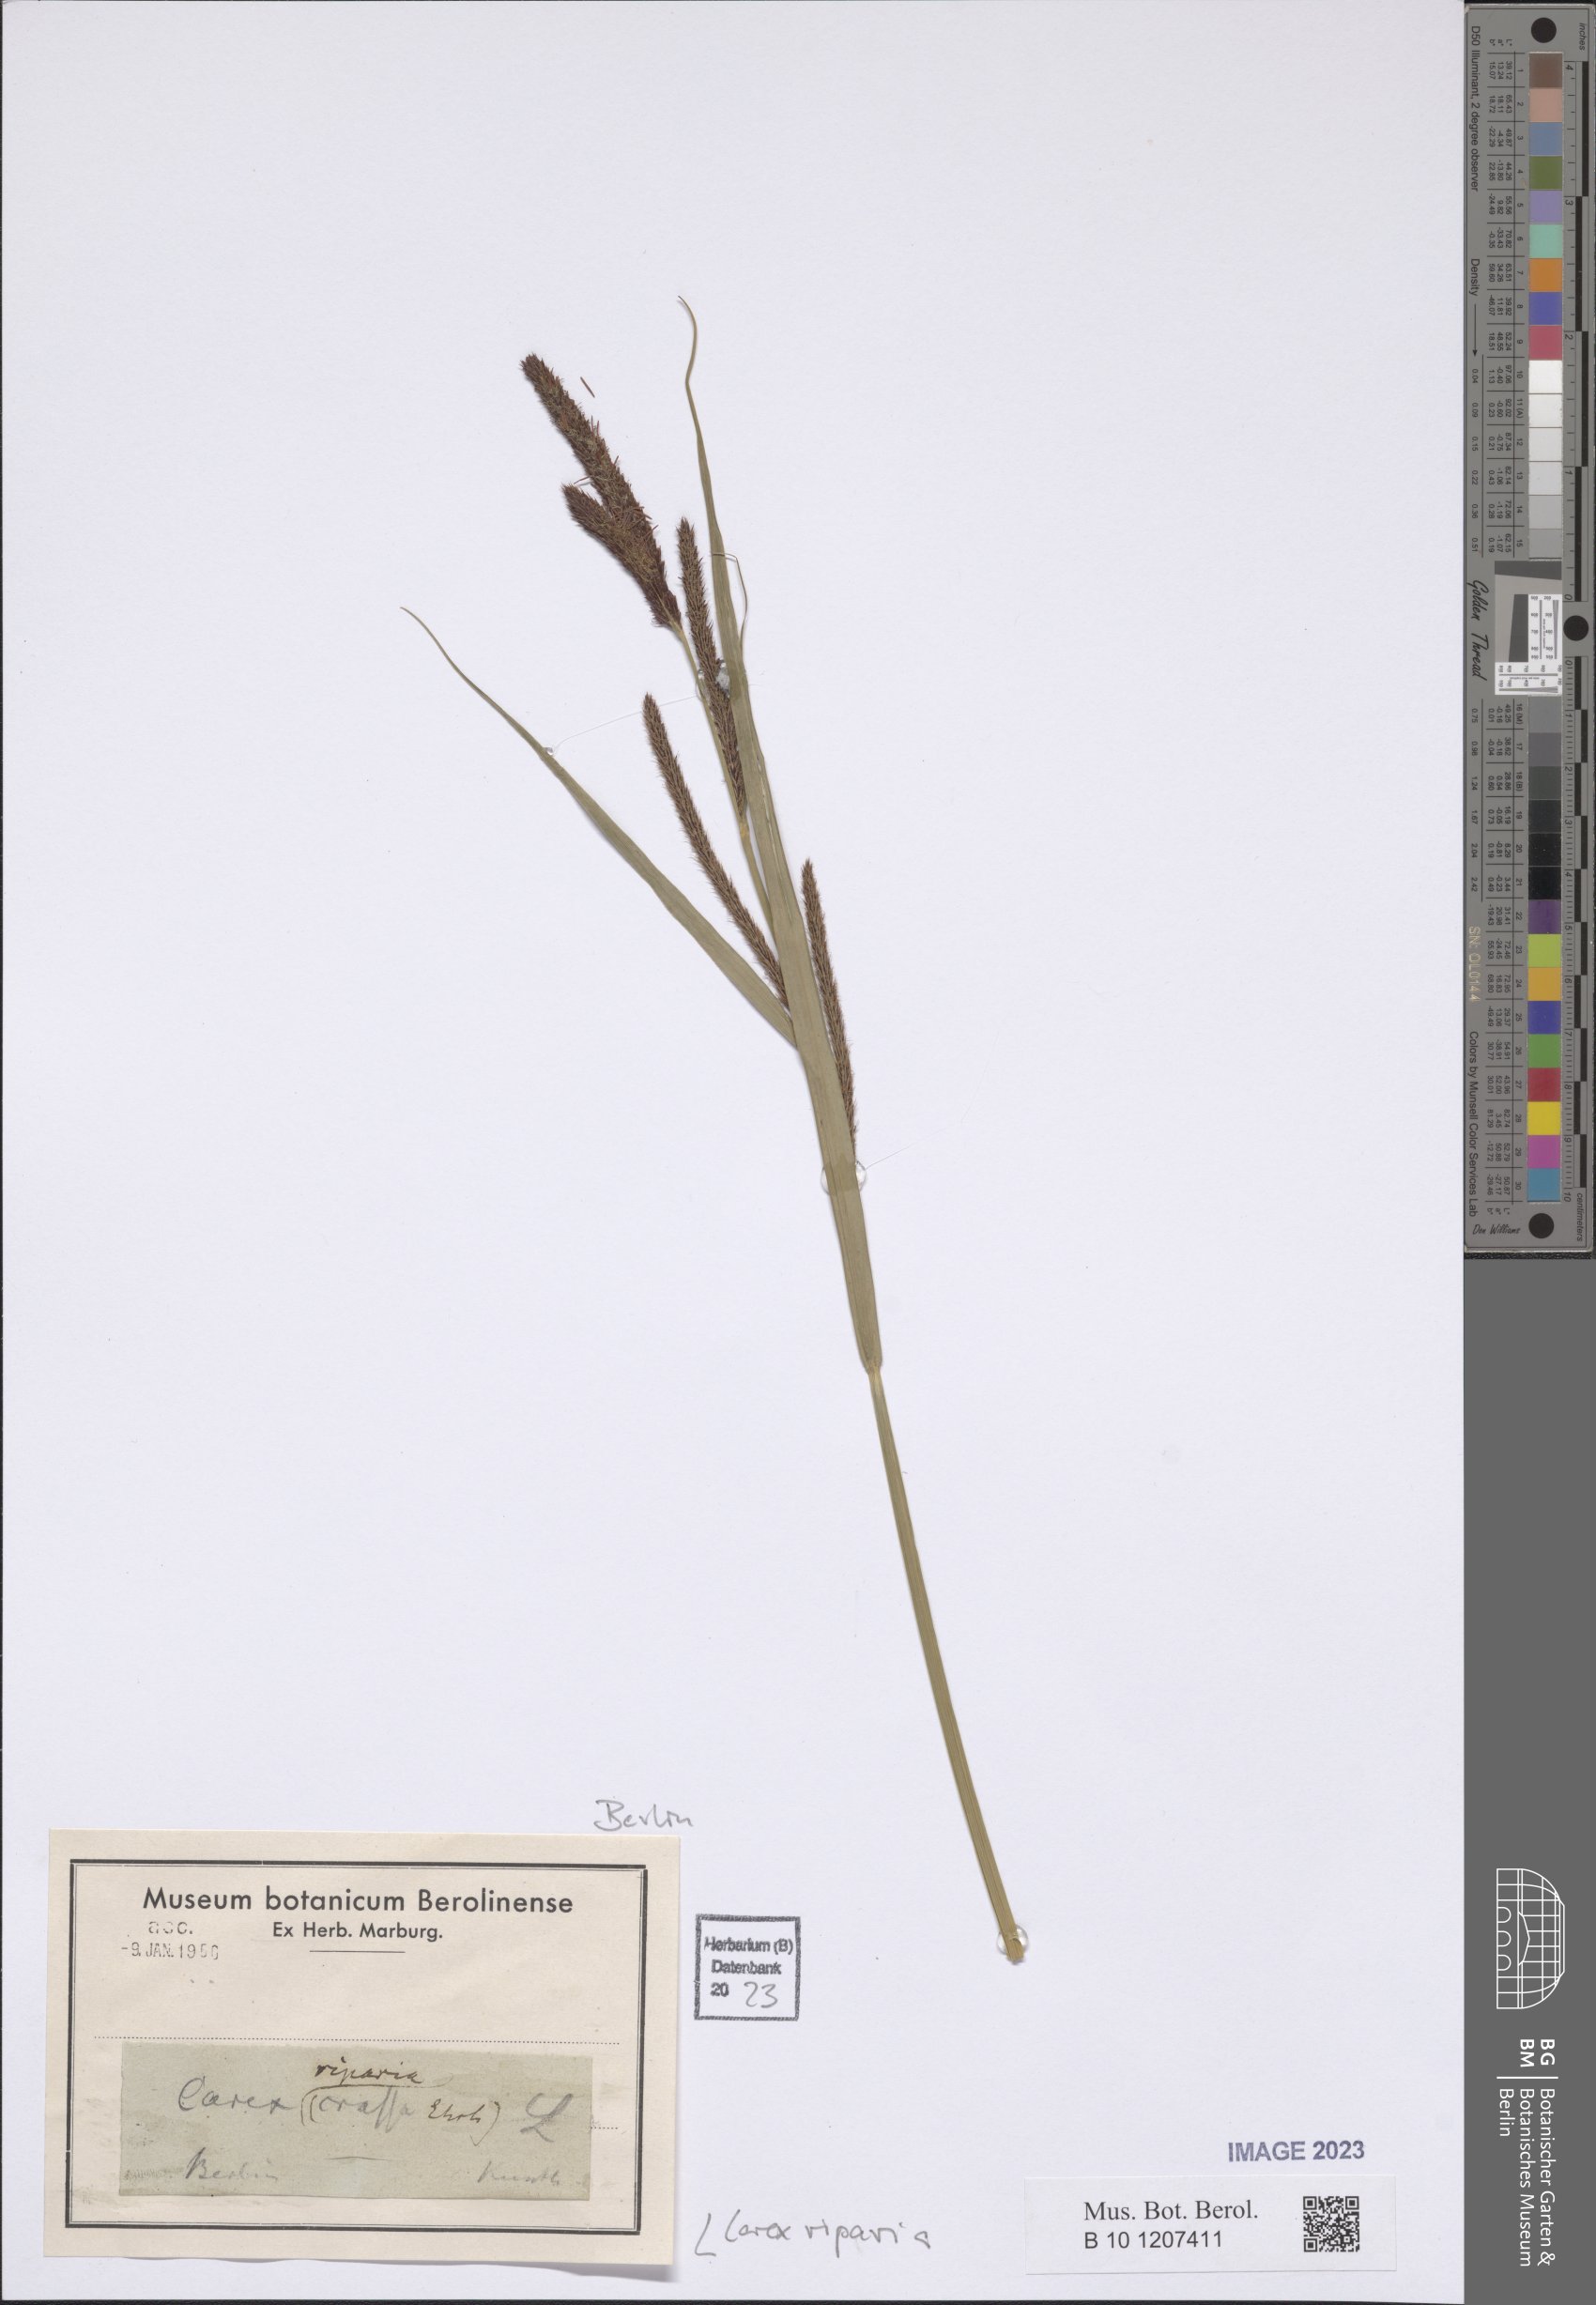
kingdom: Plantae
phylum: Tracheophyta
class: Liliopsida
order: Poales
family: Cyperaceae
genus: Carex
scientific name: Carex riparia
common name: Greater pond-sedge
